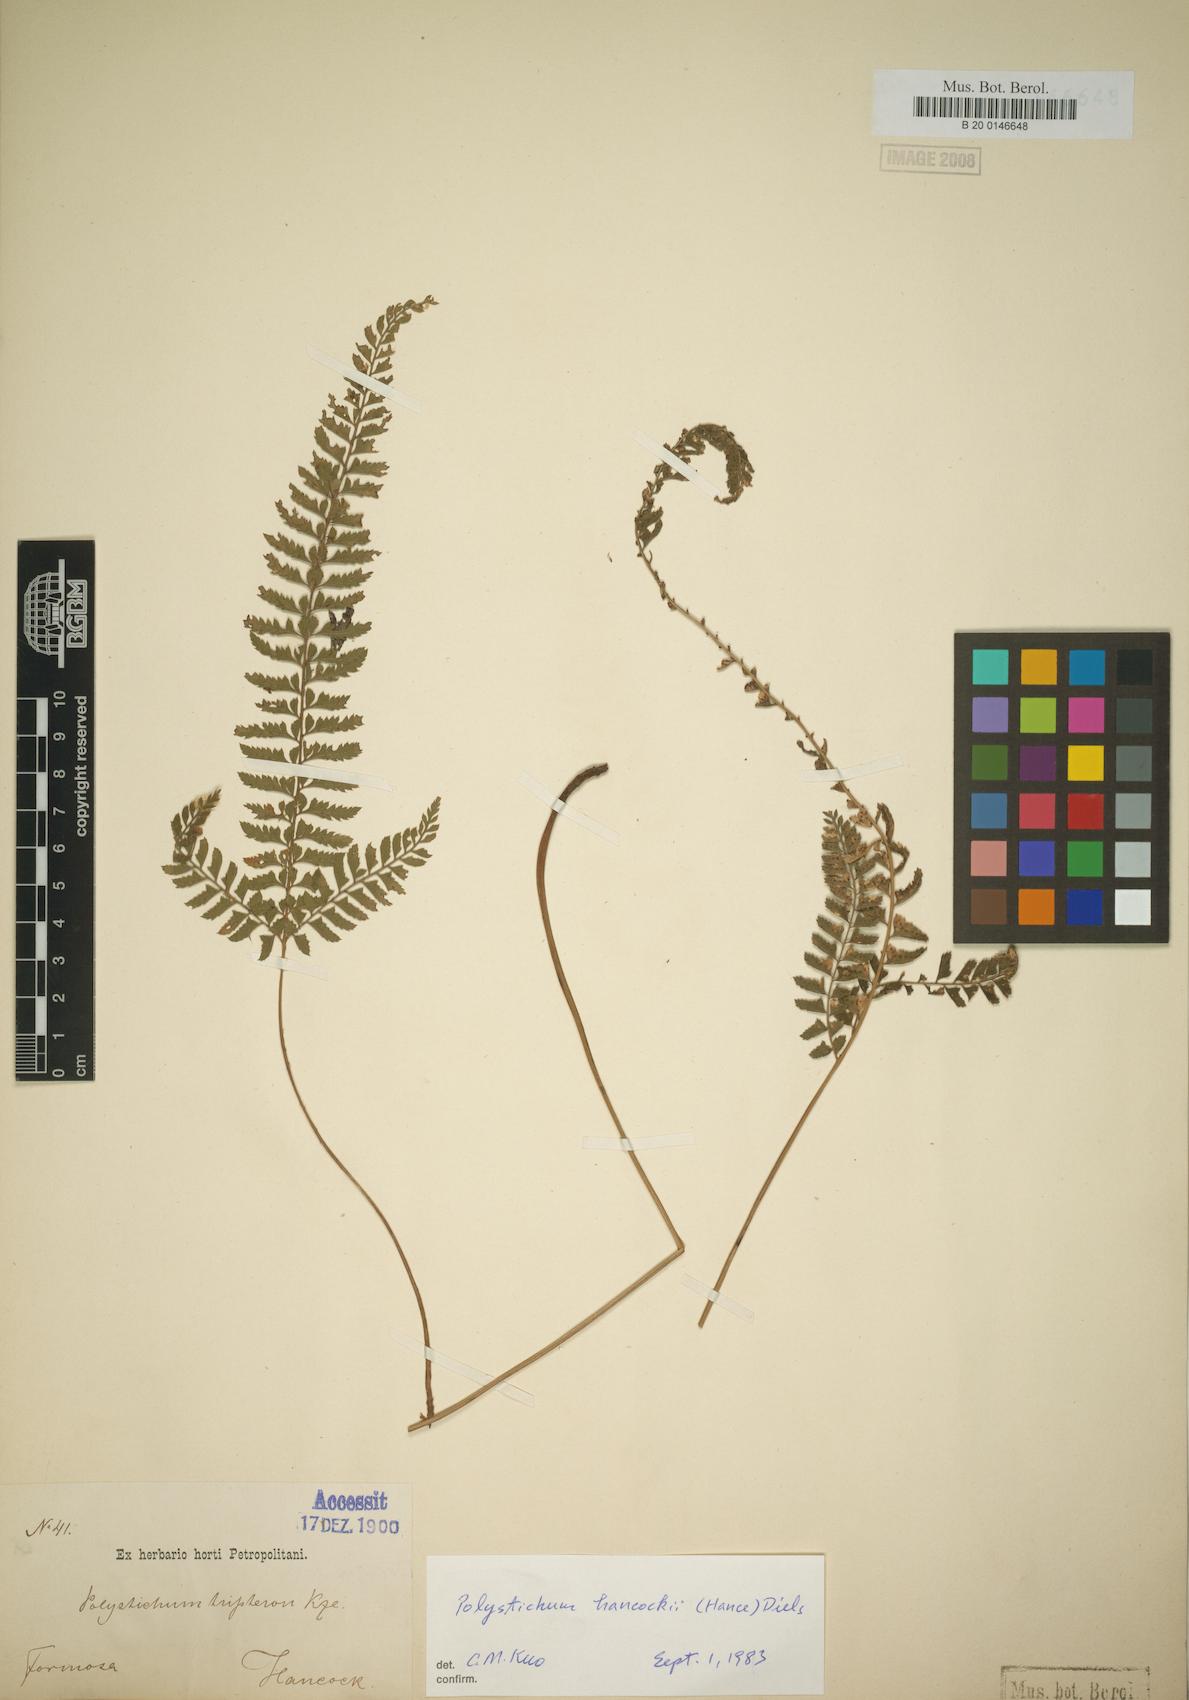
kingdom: Plantae
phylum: Tracheophyta
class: Polypodiopsida
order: Polypodiales
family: Dryopteridaceae
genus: Polystichum
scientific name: Polystichum hancockii
